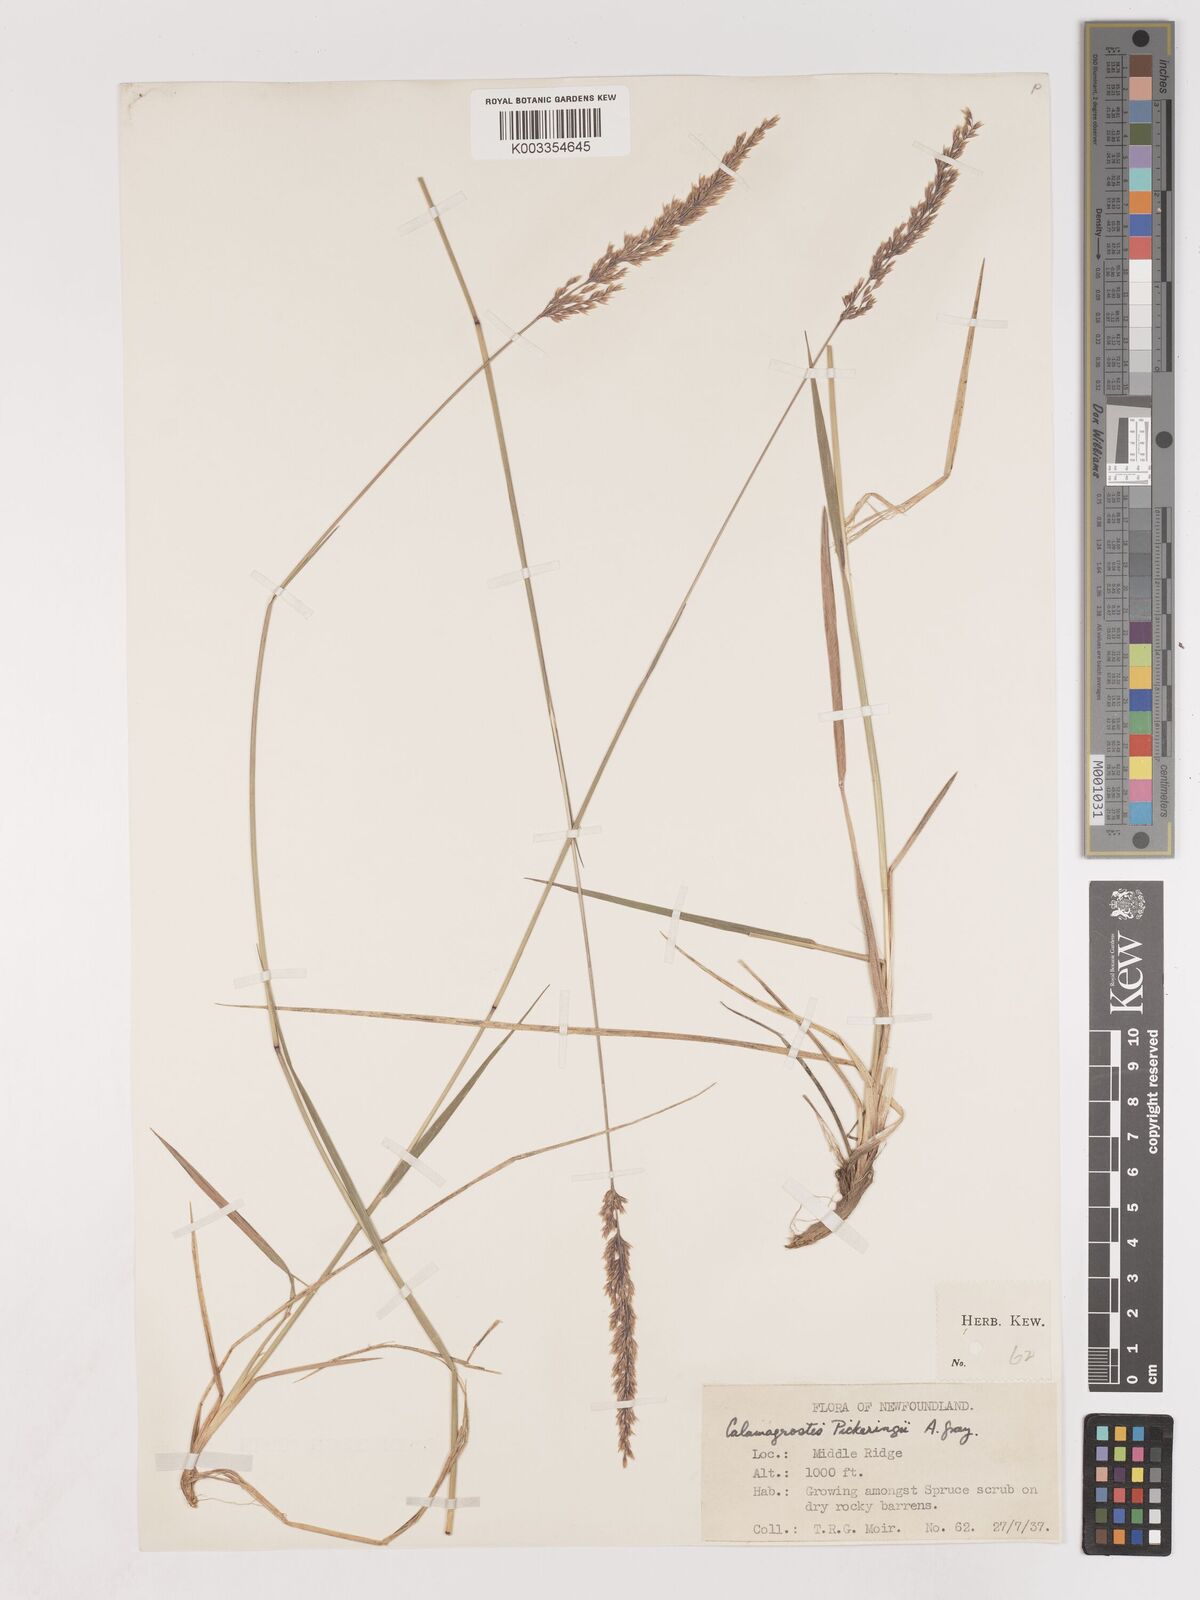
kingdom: Plantae
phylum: Tracheophyta
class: Liliopsida
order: Poales
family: Poaceae
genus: Calamagrostis
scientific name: Calamagrostis pickeringii
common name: Pickering's reed bentgrass
